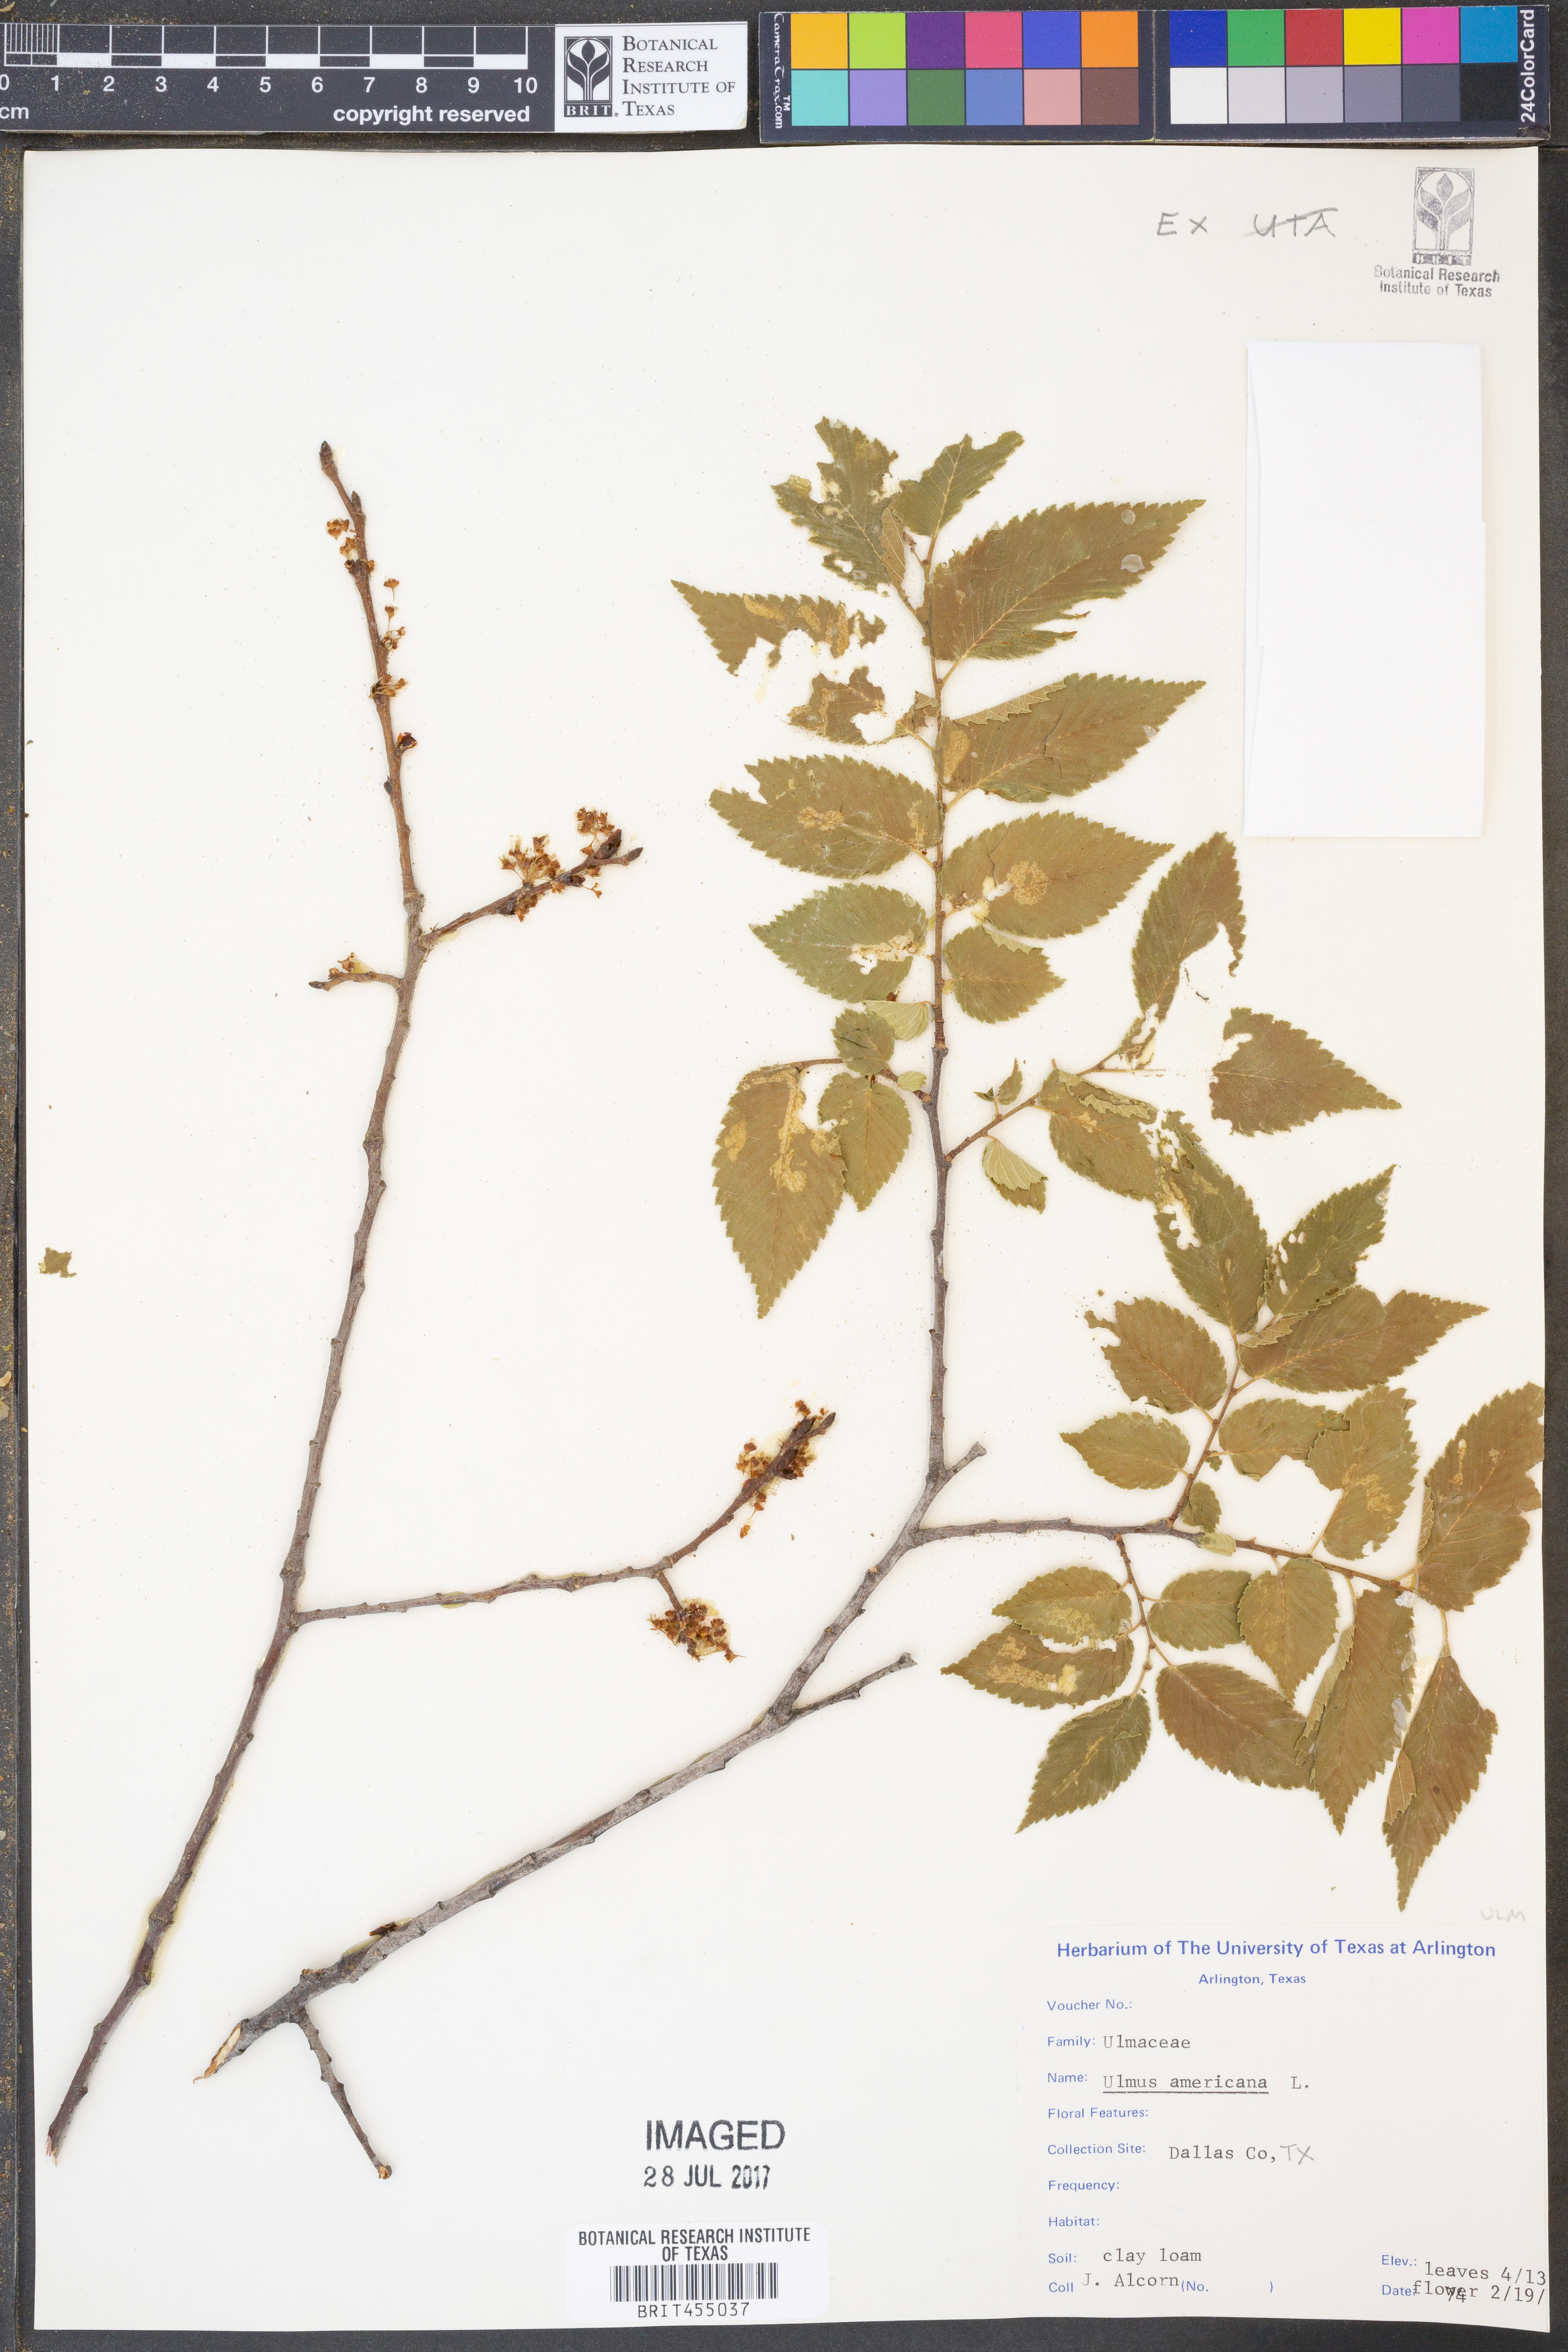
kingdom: Plantae
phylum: Tracheophyta
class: Magnoliopsida
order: Rosales
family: Ulmaceae
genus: Ulmus
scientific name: Ulmus americana
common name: American elm
